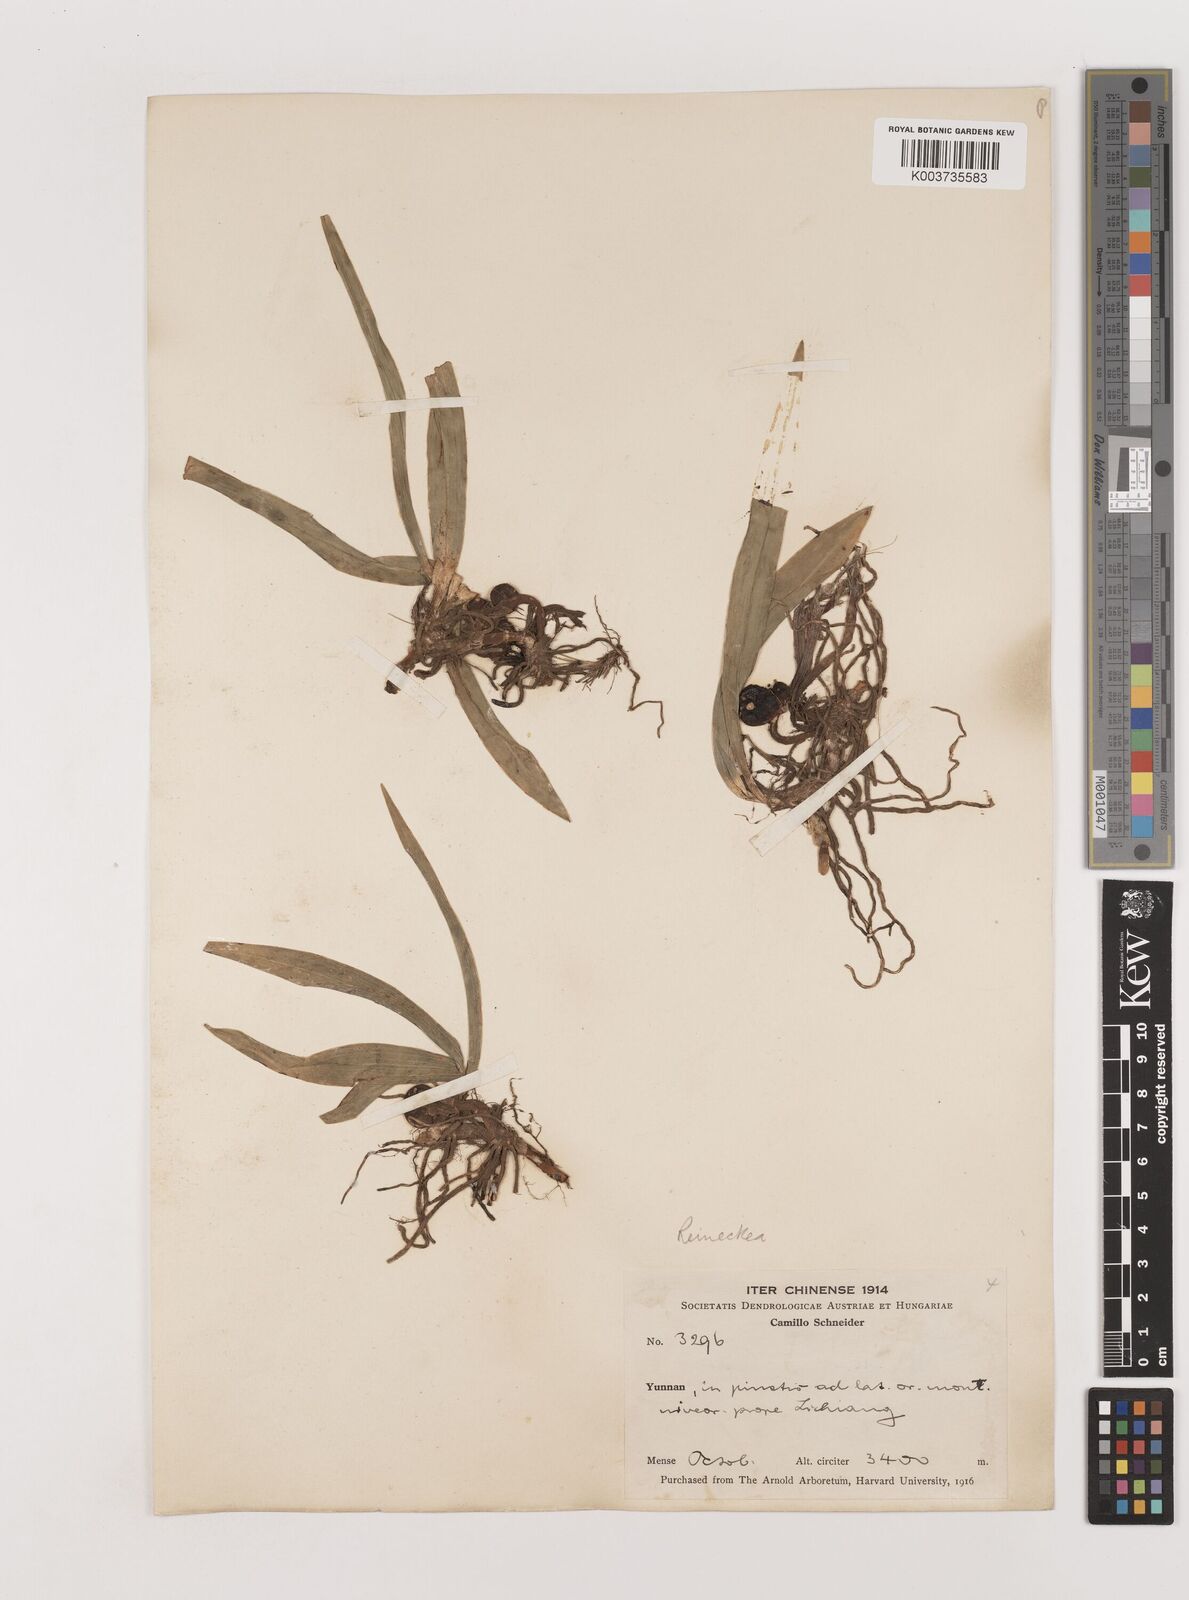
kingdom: Plantae
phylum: Tracheophyta
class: Liliopsida
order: Asparagales
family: Asparagaceae
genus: Reineckea
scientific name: Reineckea carnea
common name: Reineckea
